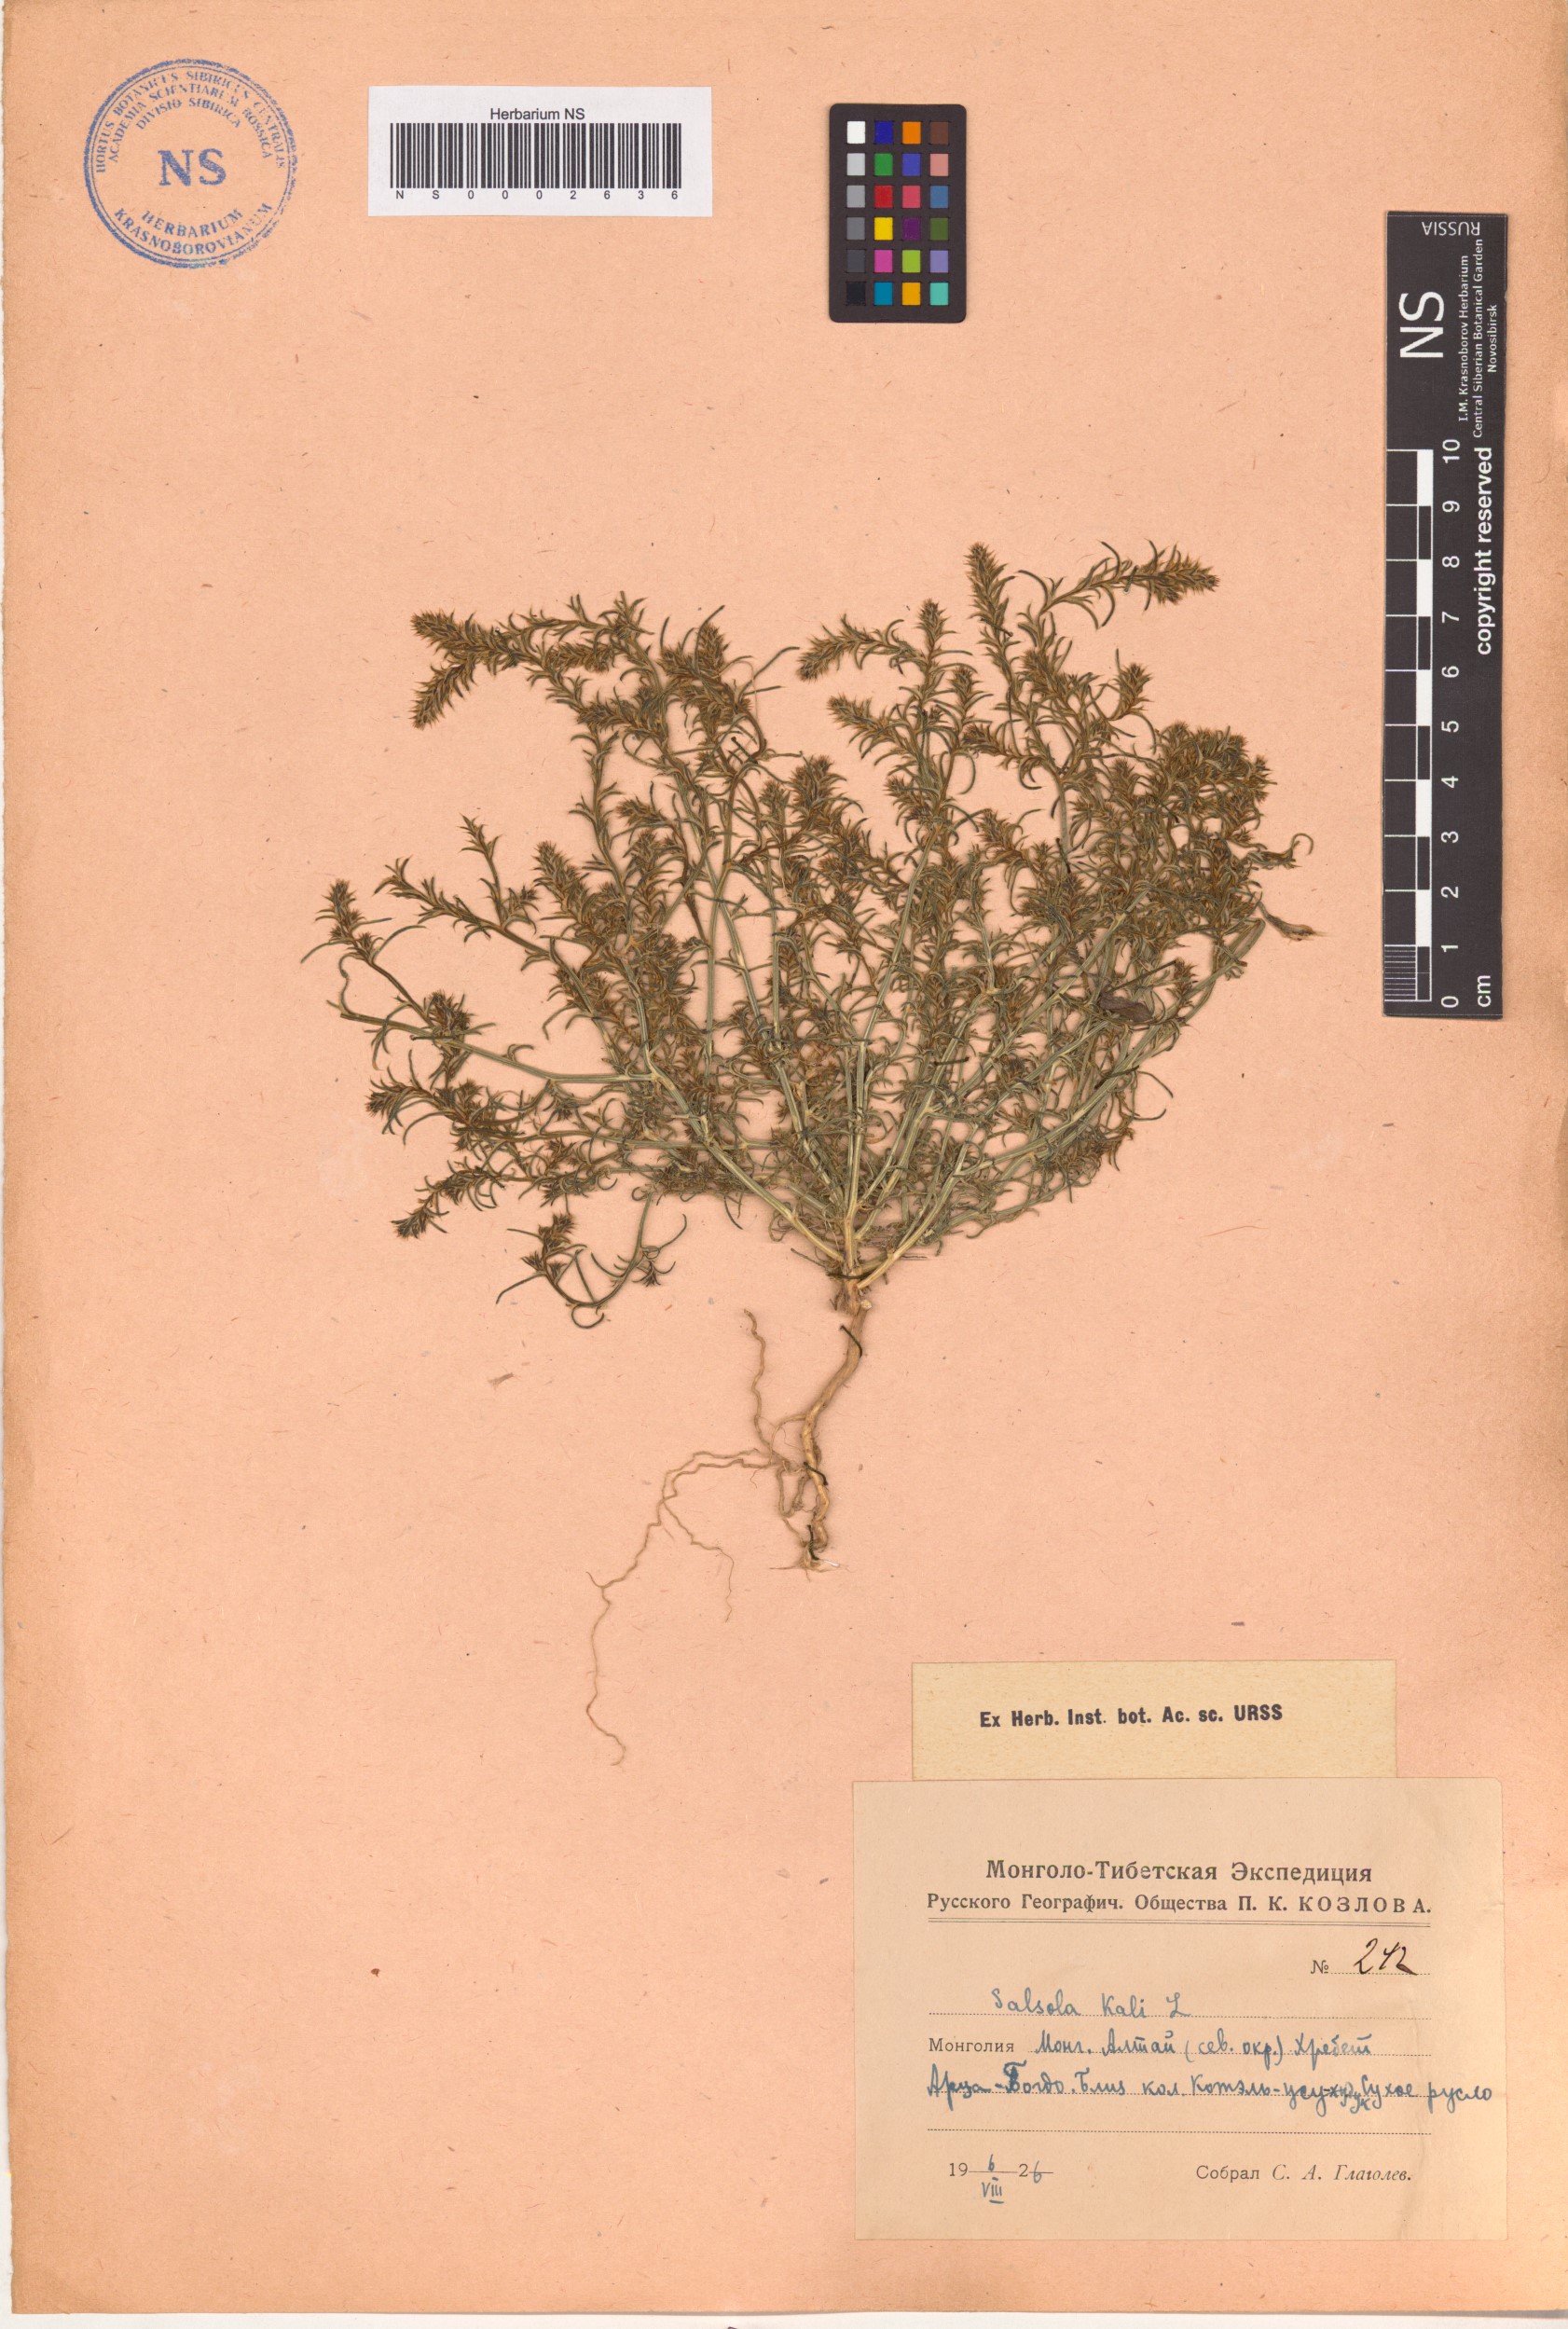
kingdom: Plantae
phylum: Tracheophyta
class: Magnoliopsida
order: Caryophyllales
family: Amaranthaceae
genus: Salsola
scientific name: Salsola kali
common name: Saltwort
